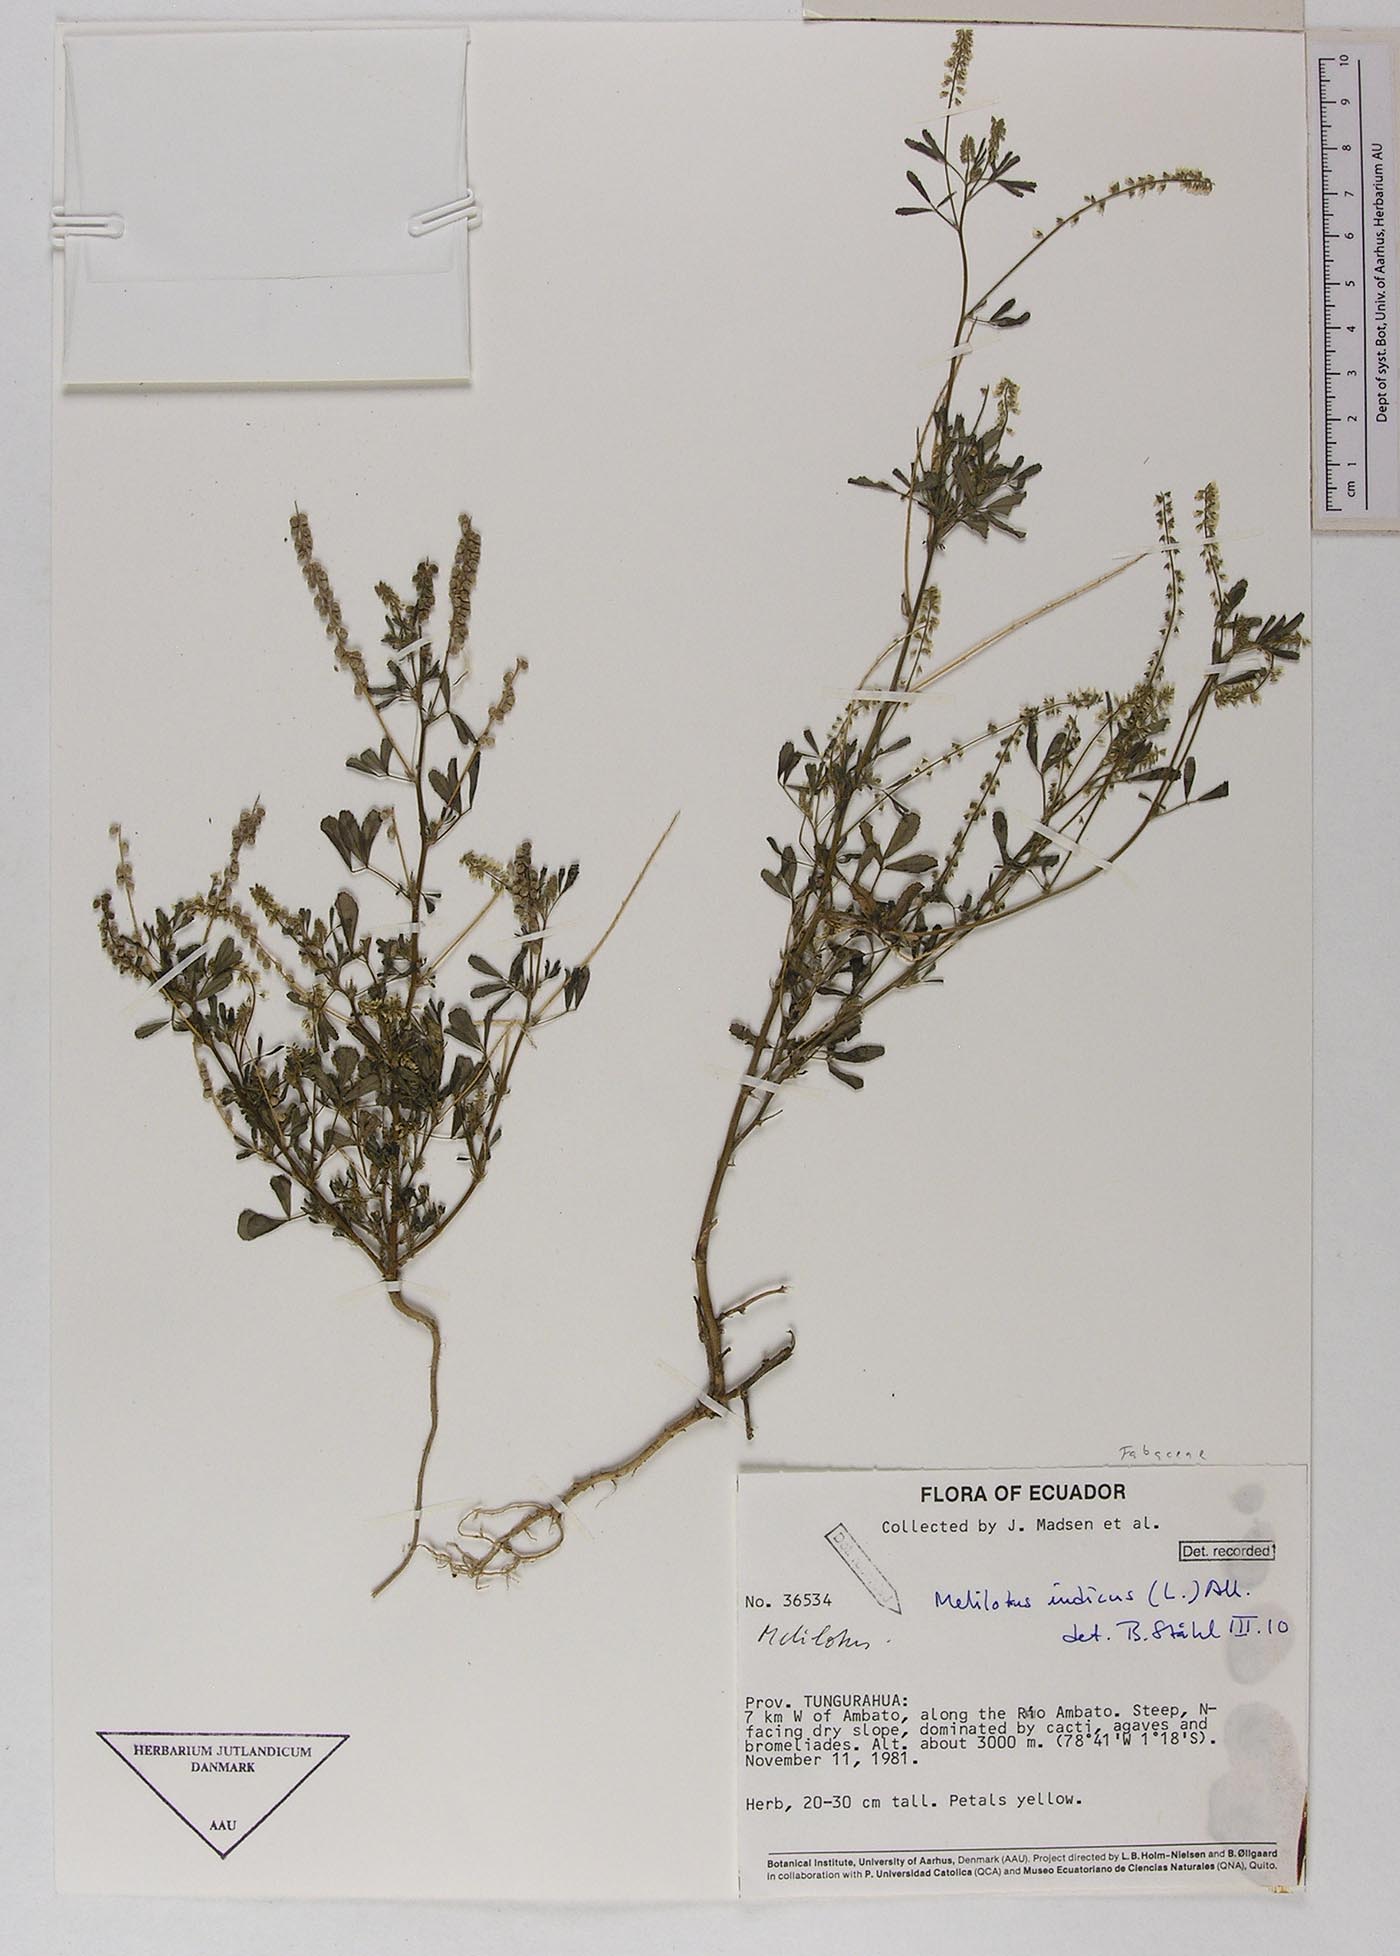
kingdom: Plantae
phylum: Tracheophyta
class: Magnoliopsida
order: Fabales
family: Fabaceae
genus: Melilotus
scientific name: Melilotus indicus
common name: Small melilot
